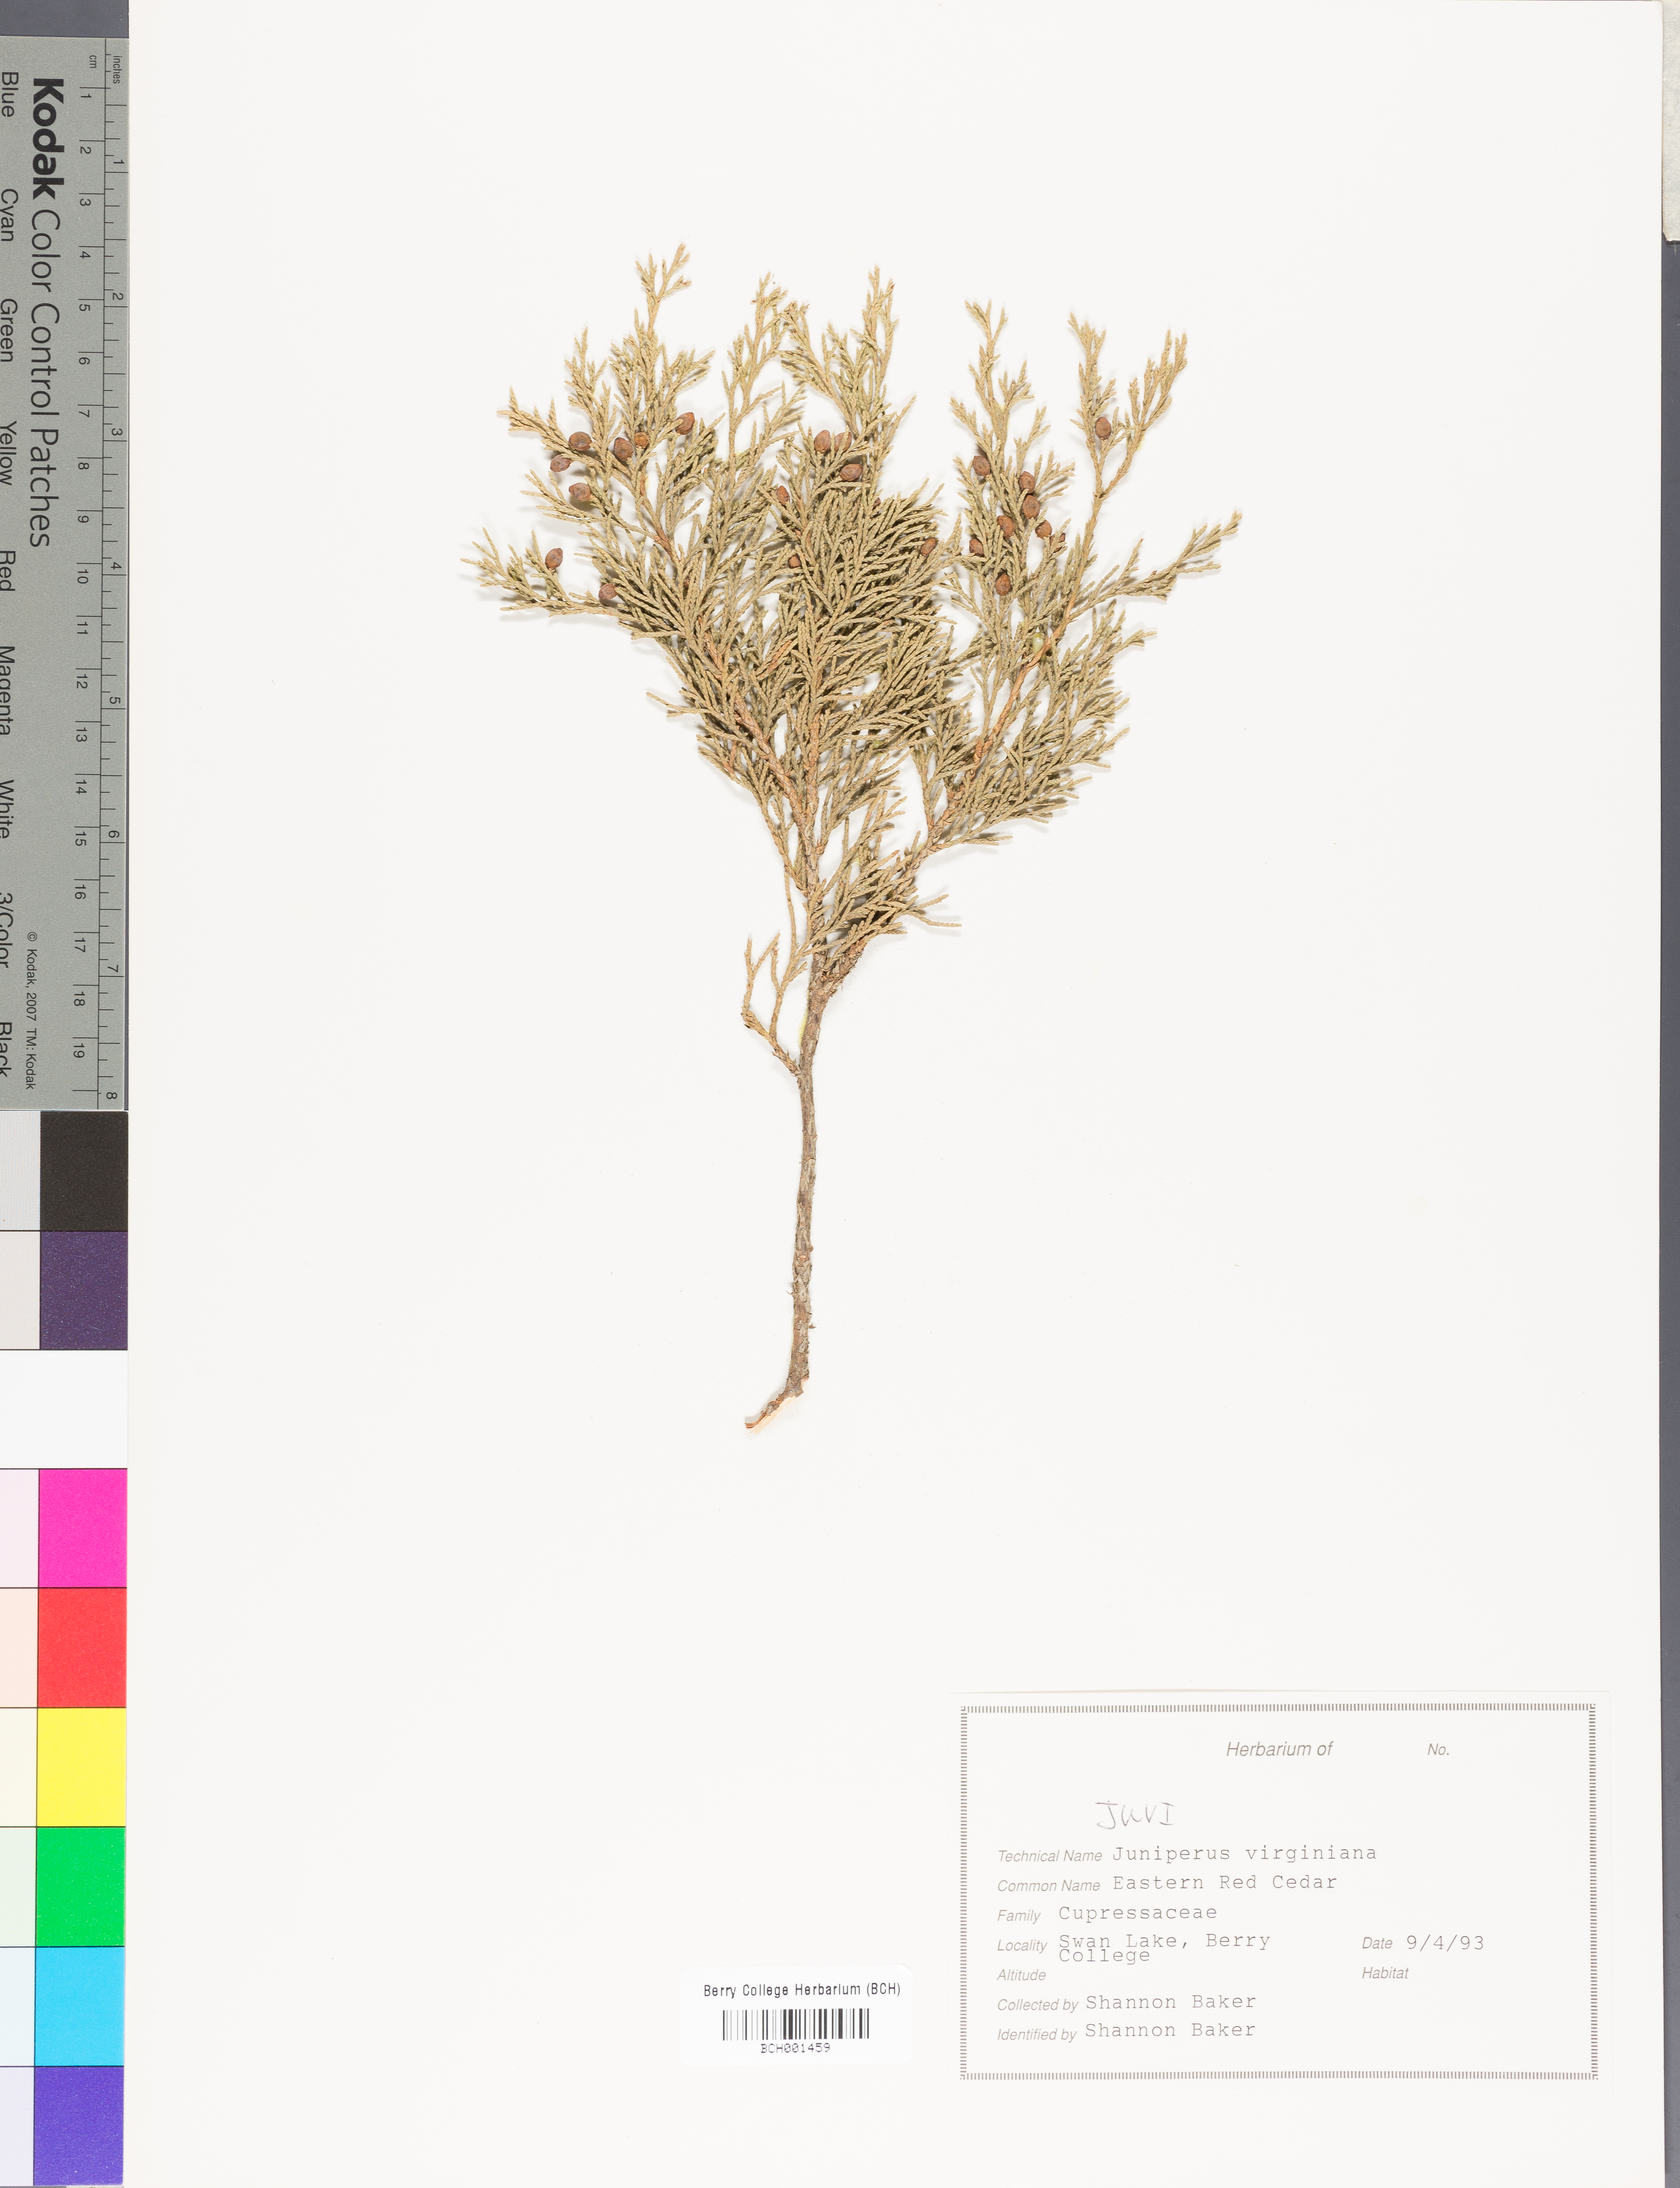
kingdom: Plantae
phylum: Tracheophyta
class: Pinopsida
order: Pinales
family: Cupressaceae
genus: Juniperus
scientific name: Juniperus virginiana
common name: Red juniper
